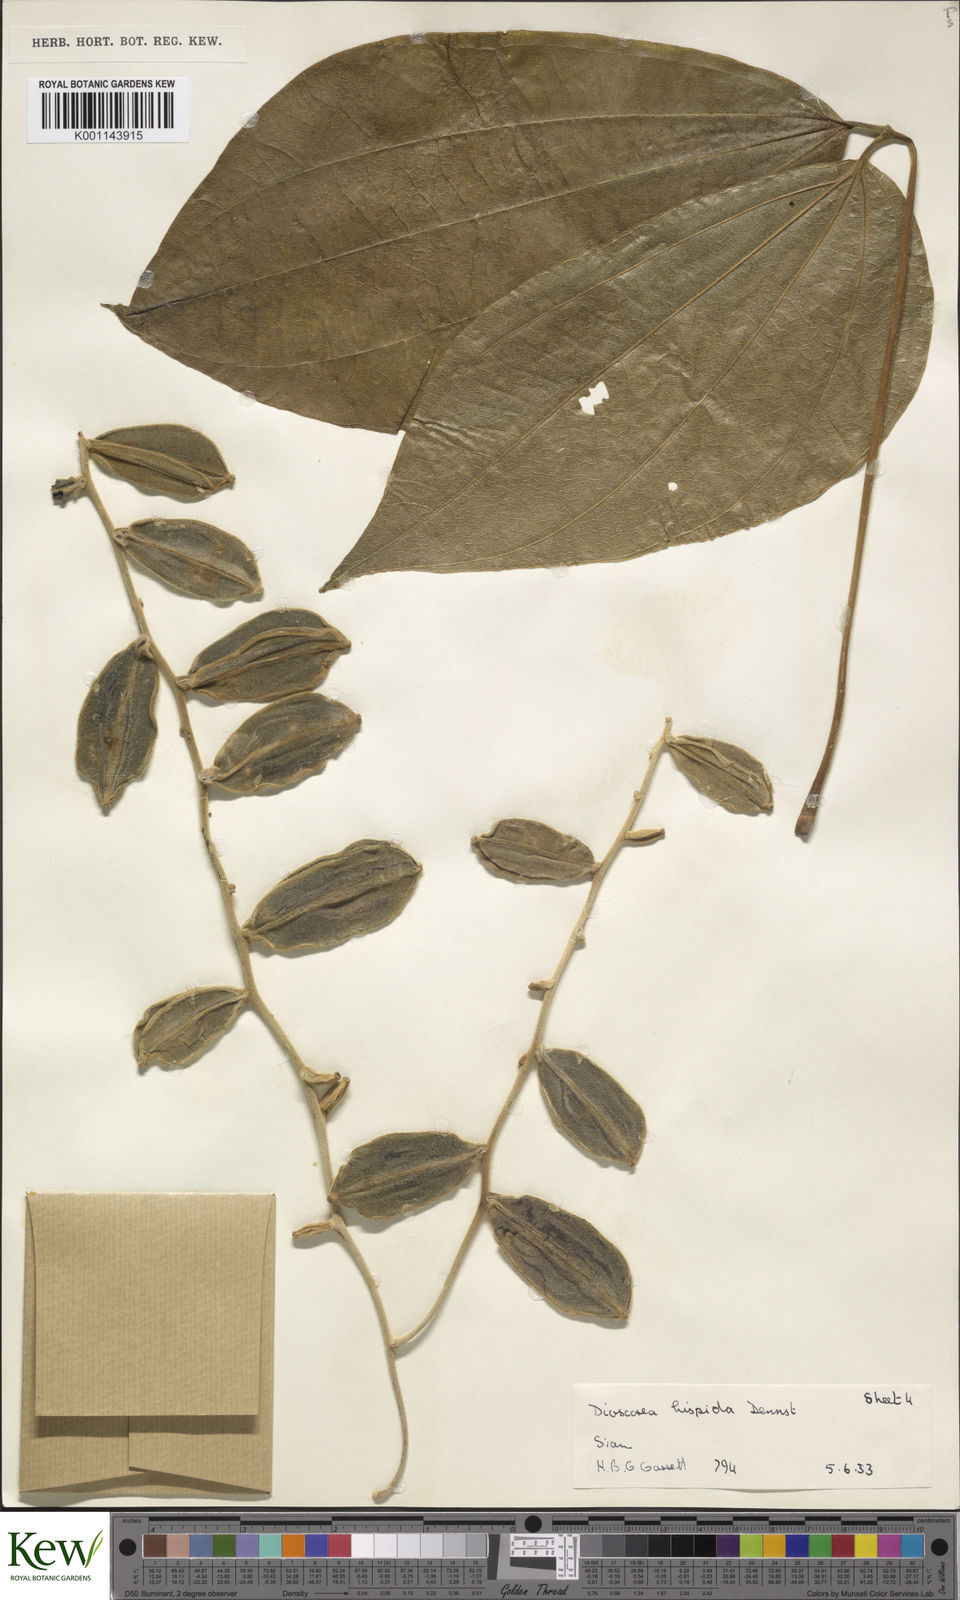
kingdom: Plantae
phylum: Tracheophyta
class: Liliopsida
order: Dioscoreales
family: Dioscoreaceae
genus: Dioscorea
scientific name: Dioscorea hispida
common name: Asiatic bitter yam
